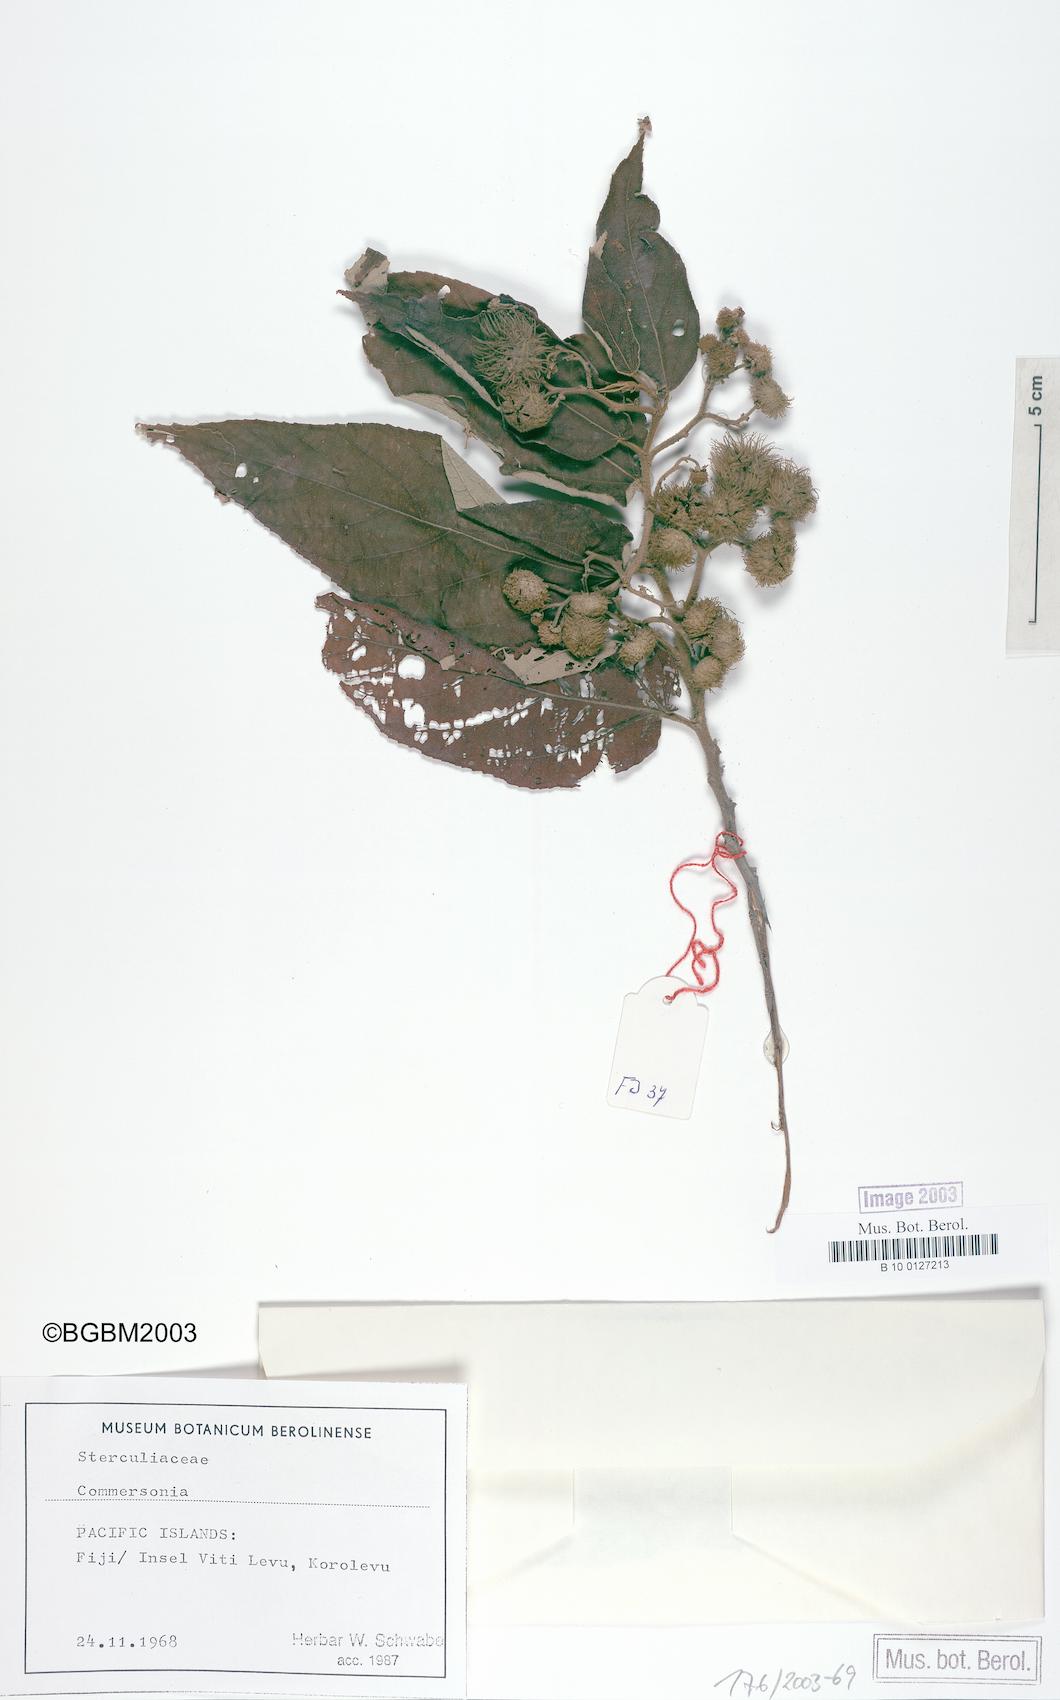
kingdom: Plantae
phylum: Tracheophyta
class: Magnoliopsida
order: Malvales
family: Malvaceae
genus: Commersonia
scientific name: Commersonia
